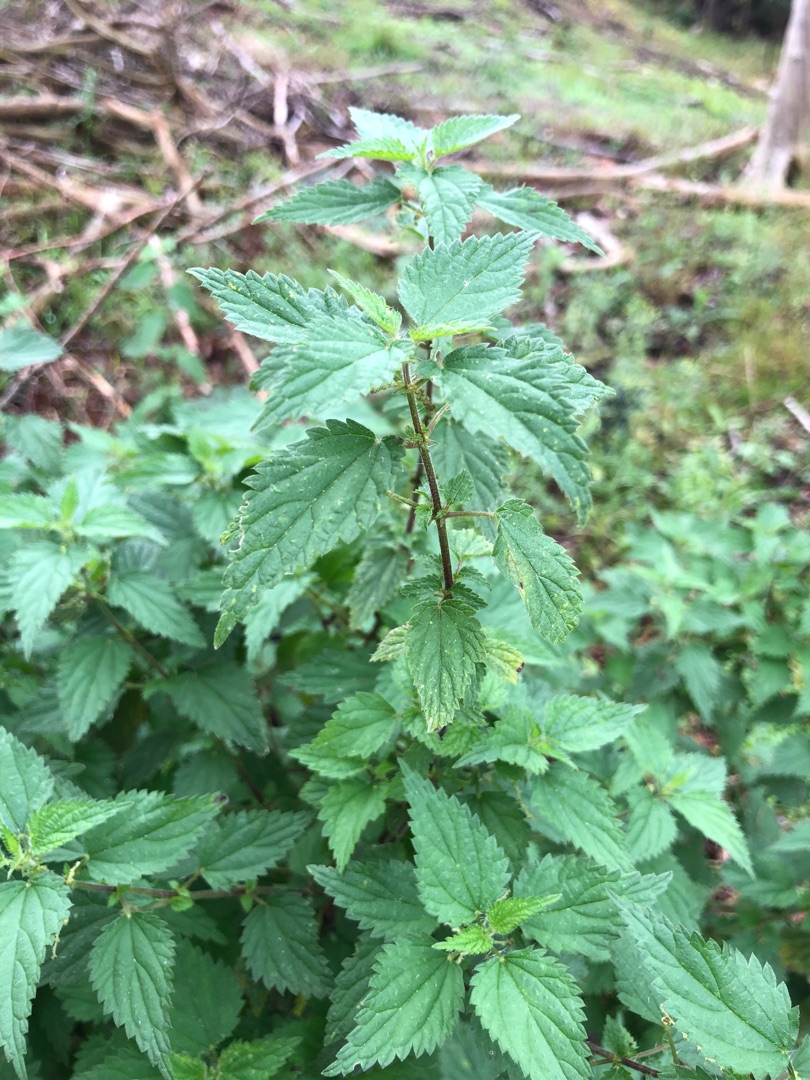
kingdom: Plantae
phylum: Tracheophyta
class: Magnoliopsida
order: Rosales
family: Urticaceae
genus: Urtica
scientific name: Urtica dioica
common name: Stor nælde
